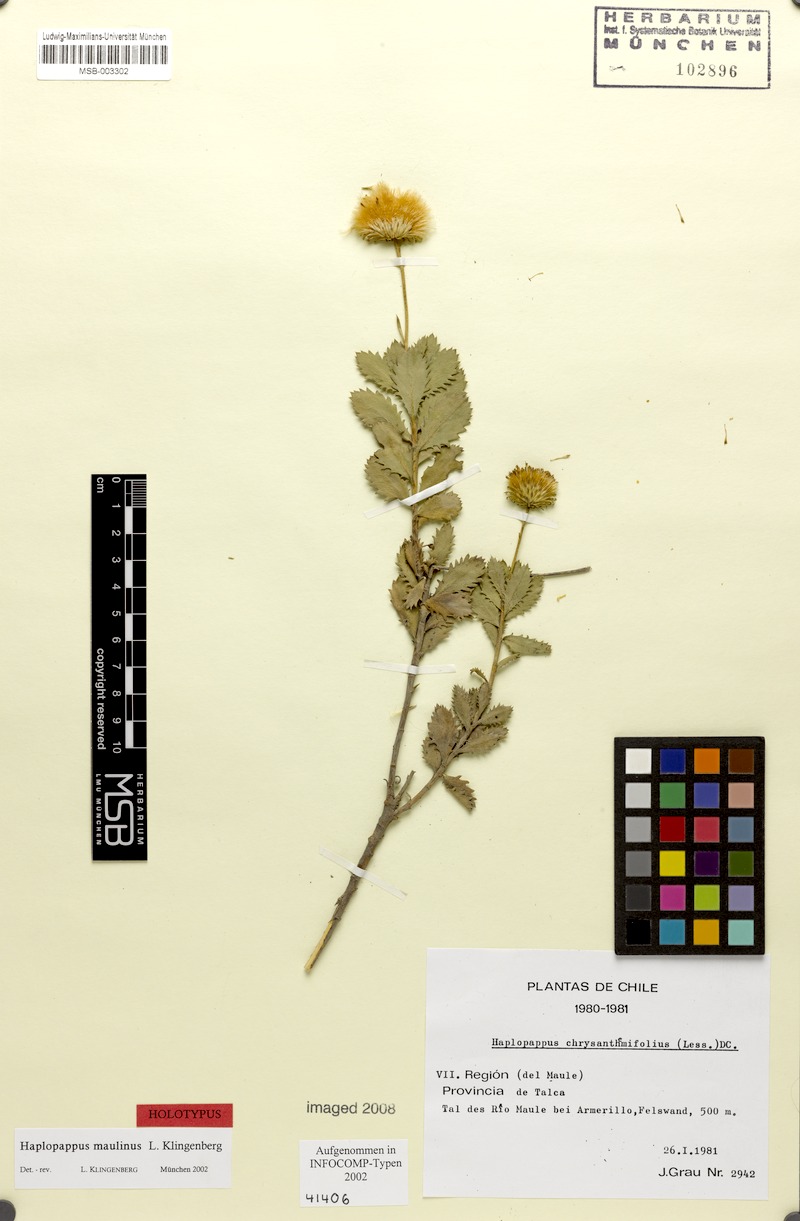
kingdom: Plantae
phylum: Tracheophyta
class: Magnoliopsida
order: Asterales
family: Asteraceae
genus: Haplopappus
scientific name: Haplopappus maulinus
